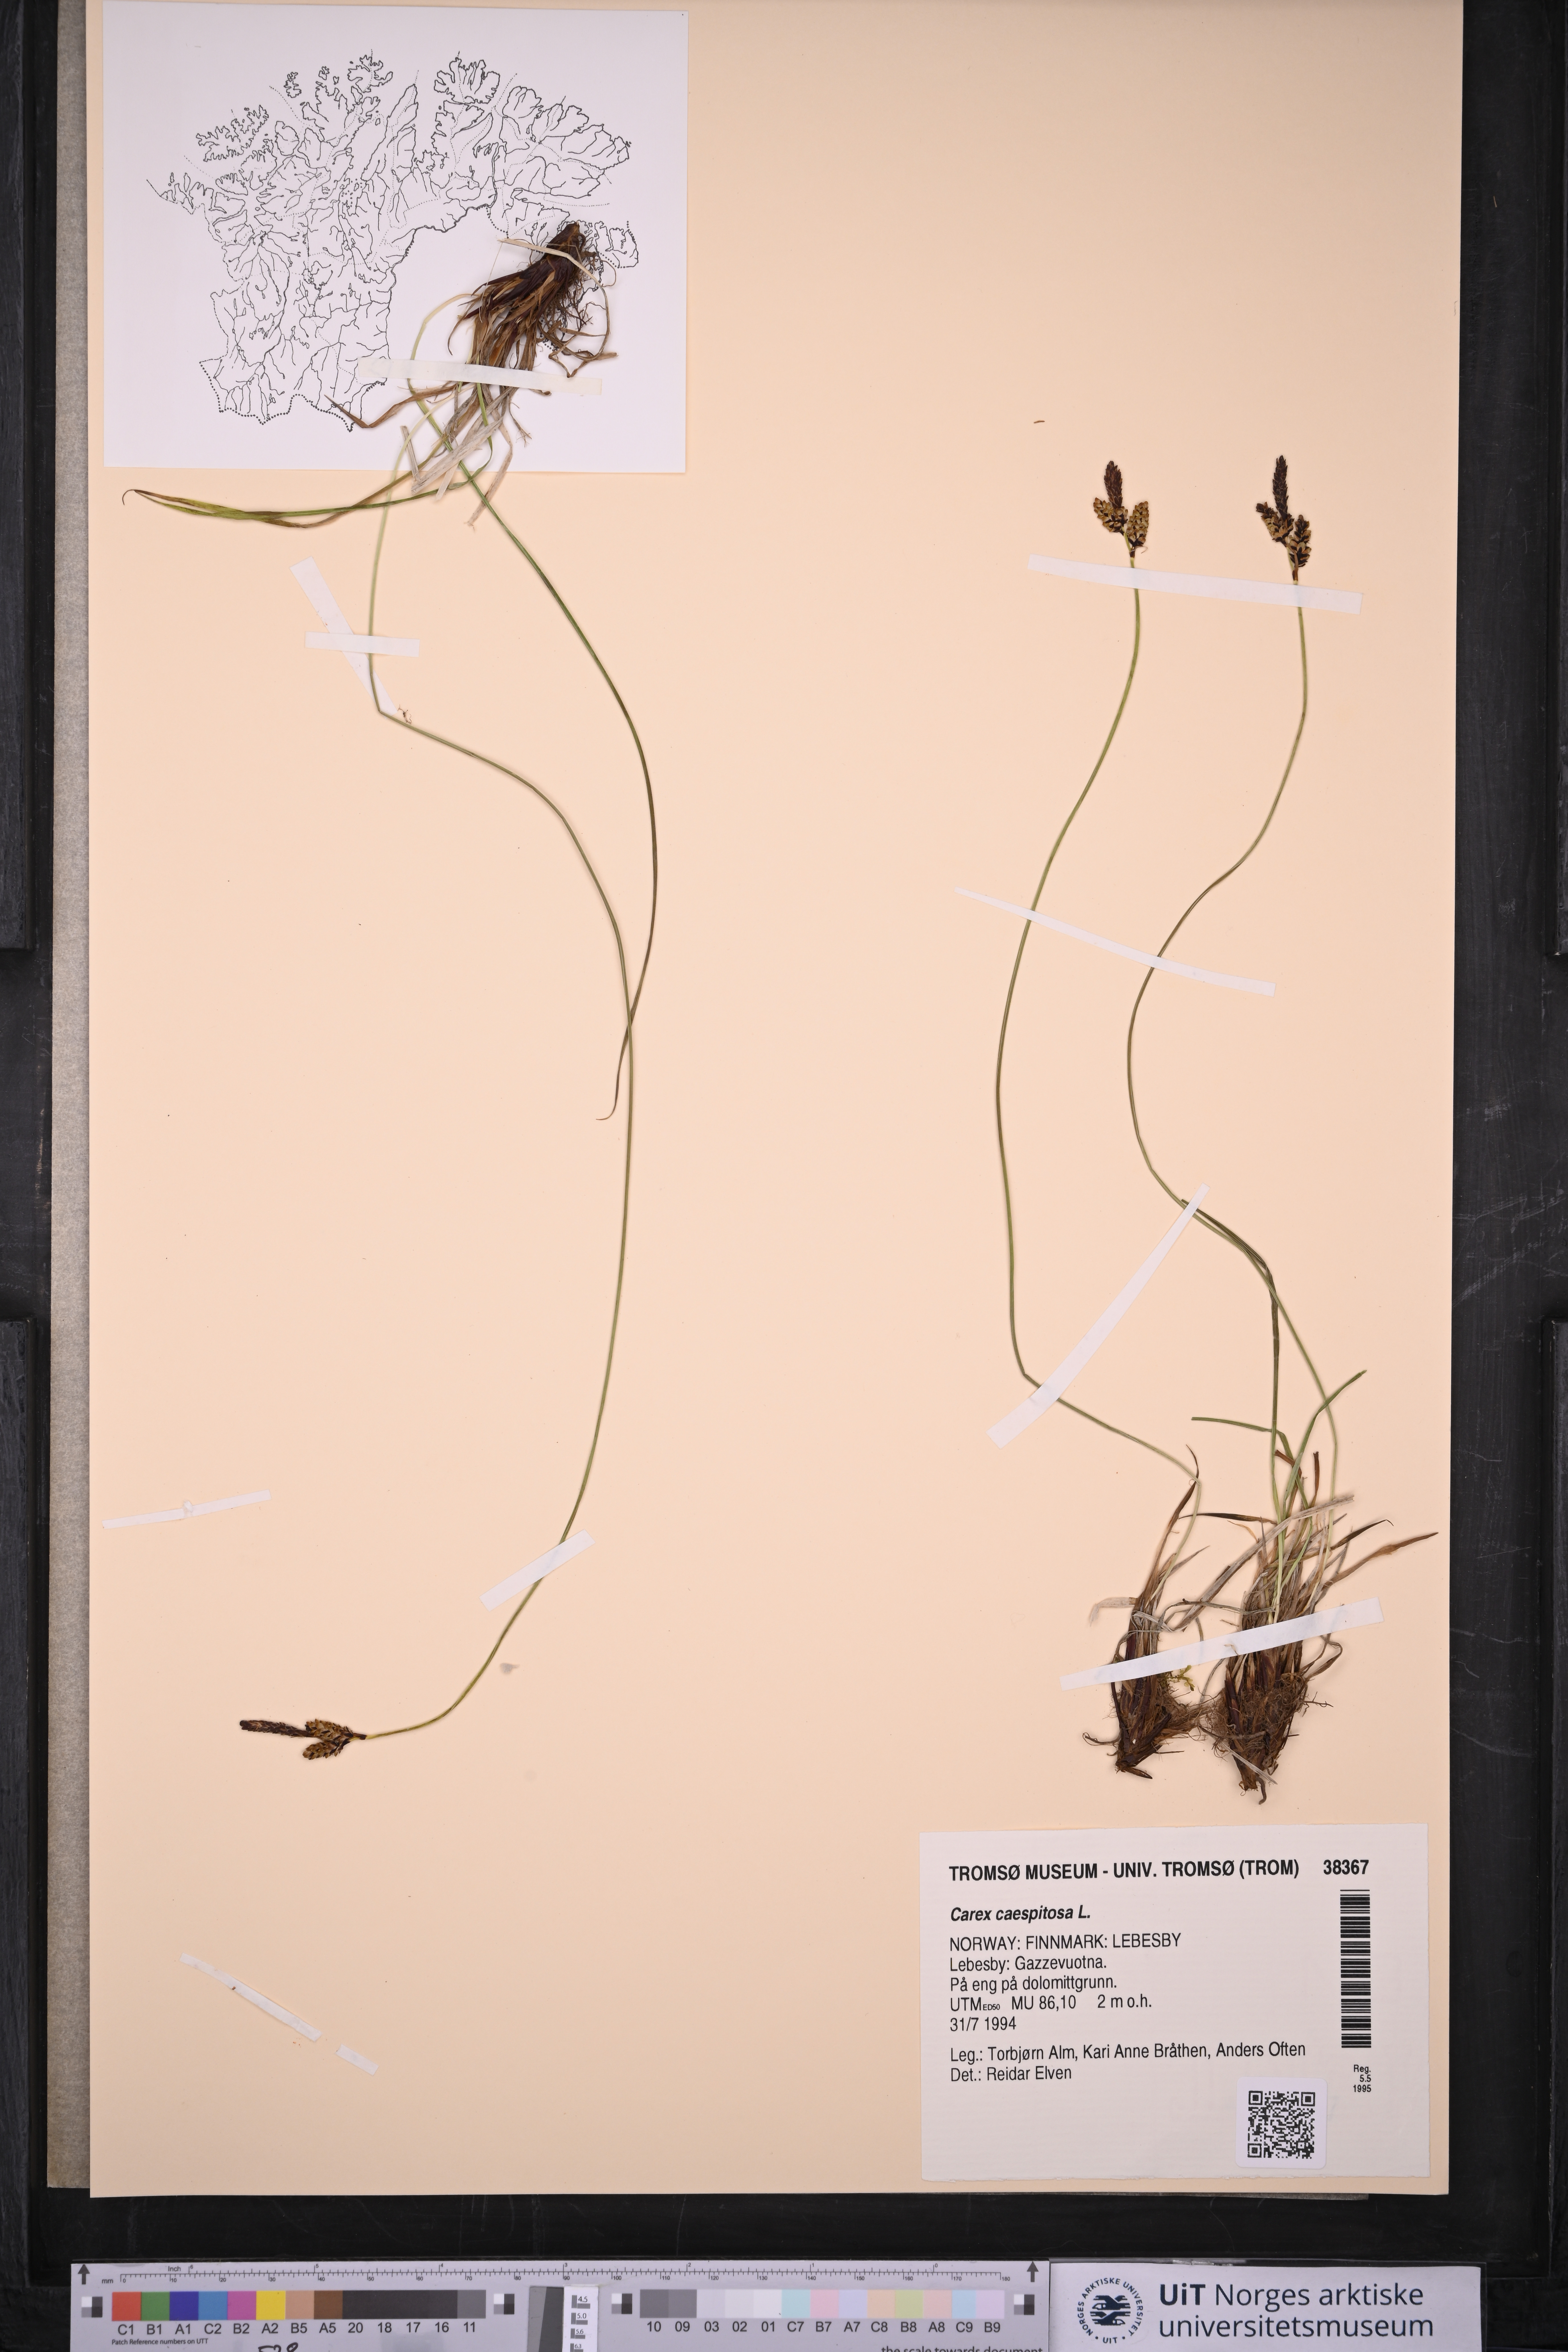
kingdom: Plantae
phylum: Tracheophyta
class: Liliopsida
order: Poales
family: Cyperaceae
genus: Carex
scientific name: Carex cespitosa
